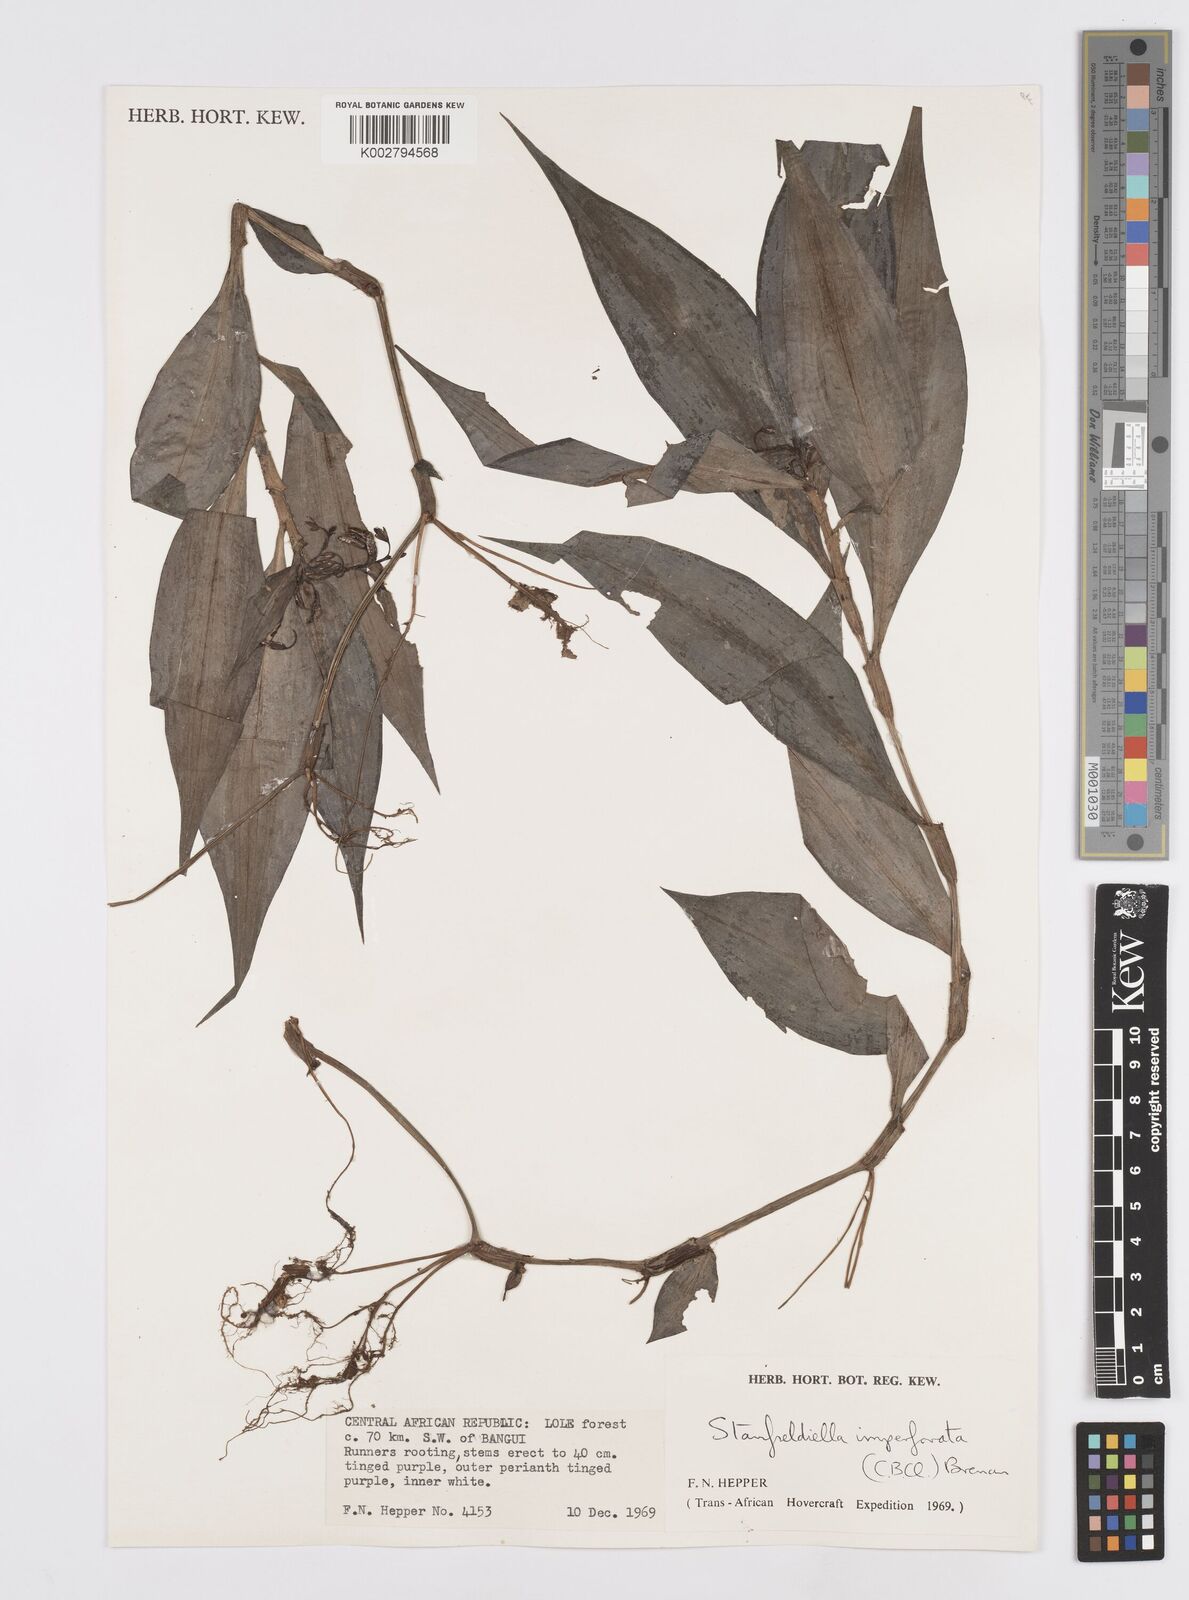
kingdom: Plantae
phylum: Tracheophyta
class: Liliopsida
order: Commelinales
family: Commelinaceae
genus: Stanfieldiella
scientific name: Stanfieldiella imperforata
